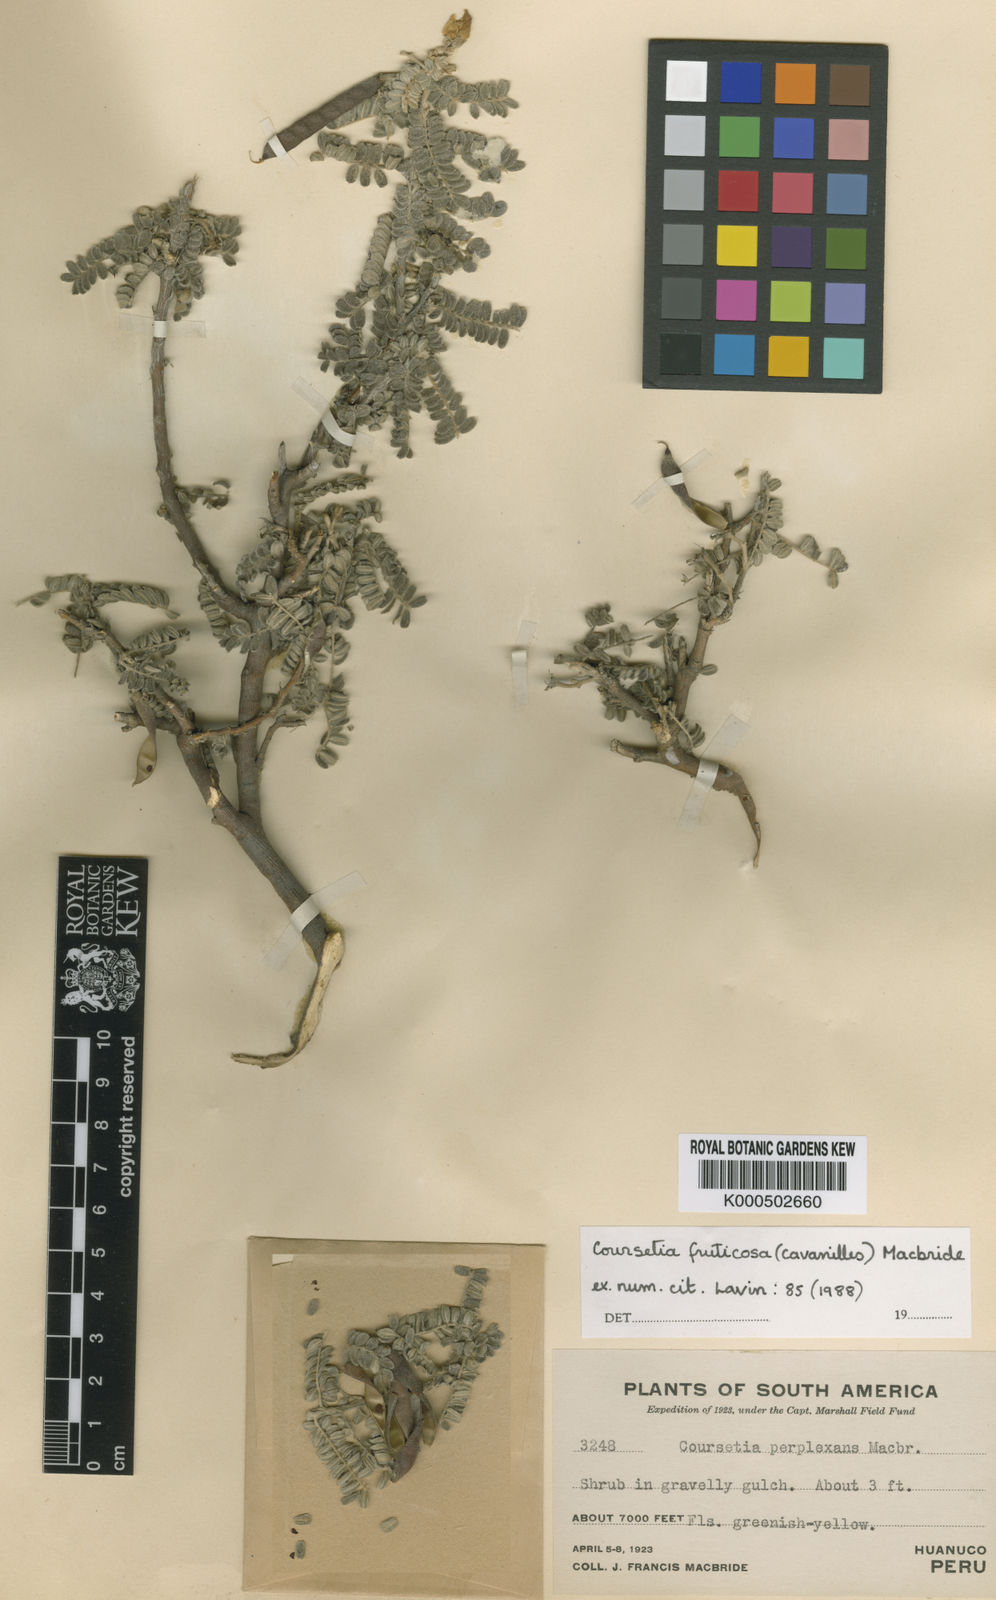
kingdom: Plantae
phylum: Tracheophyta
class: Magnoliopsida
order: Fabales
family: Fabaceae
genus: Coursetia
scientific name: Coursetia fruticosa
